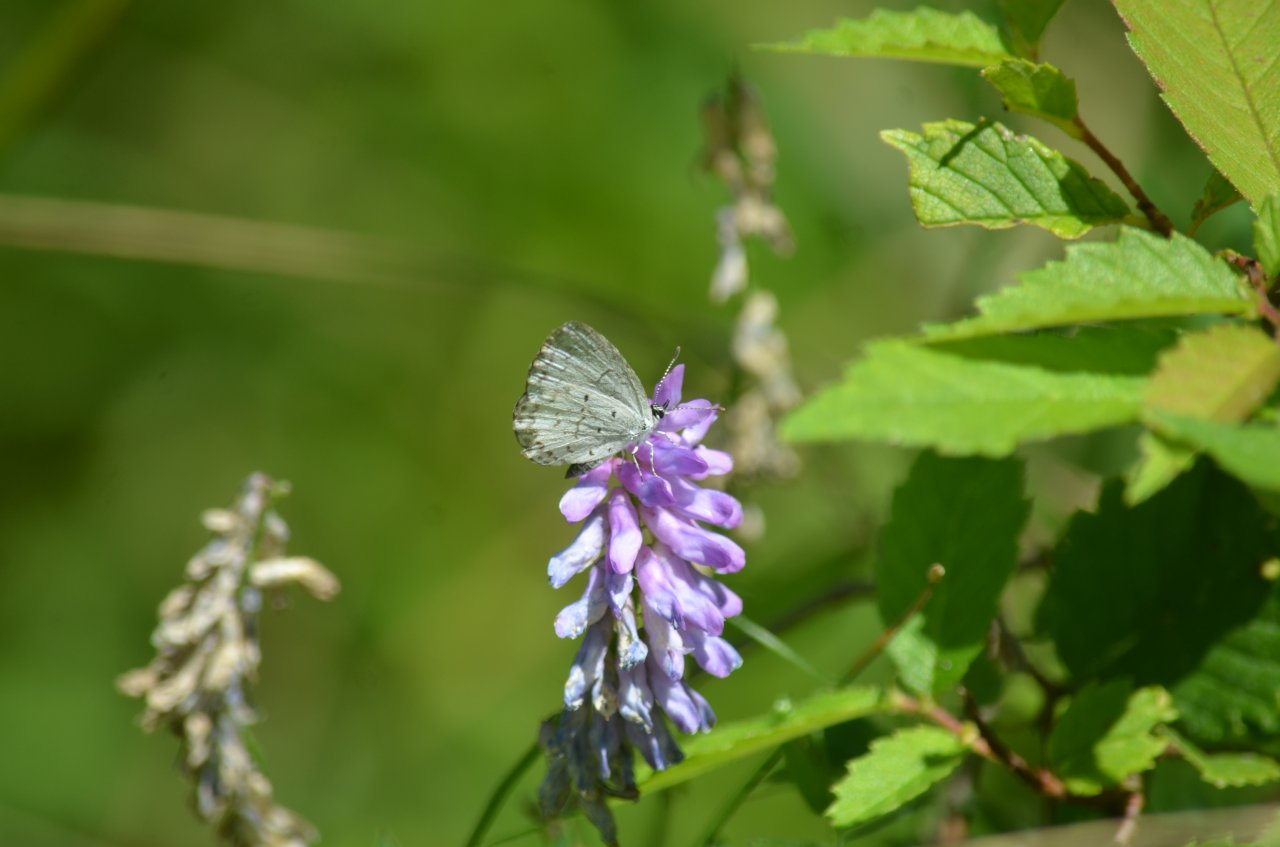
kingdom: Animalia
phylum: Arthropoda
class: Insecta
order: Lepidoptera
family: Lycaenidae
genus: Celastrina
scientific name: Celastrina
